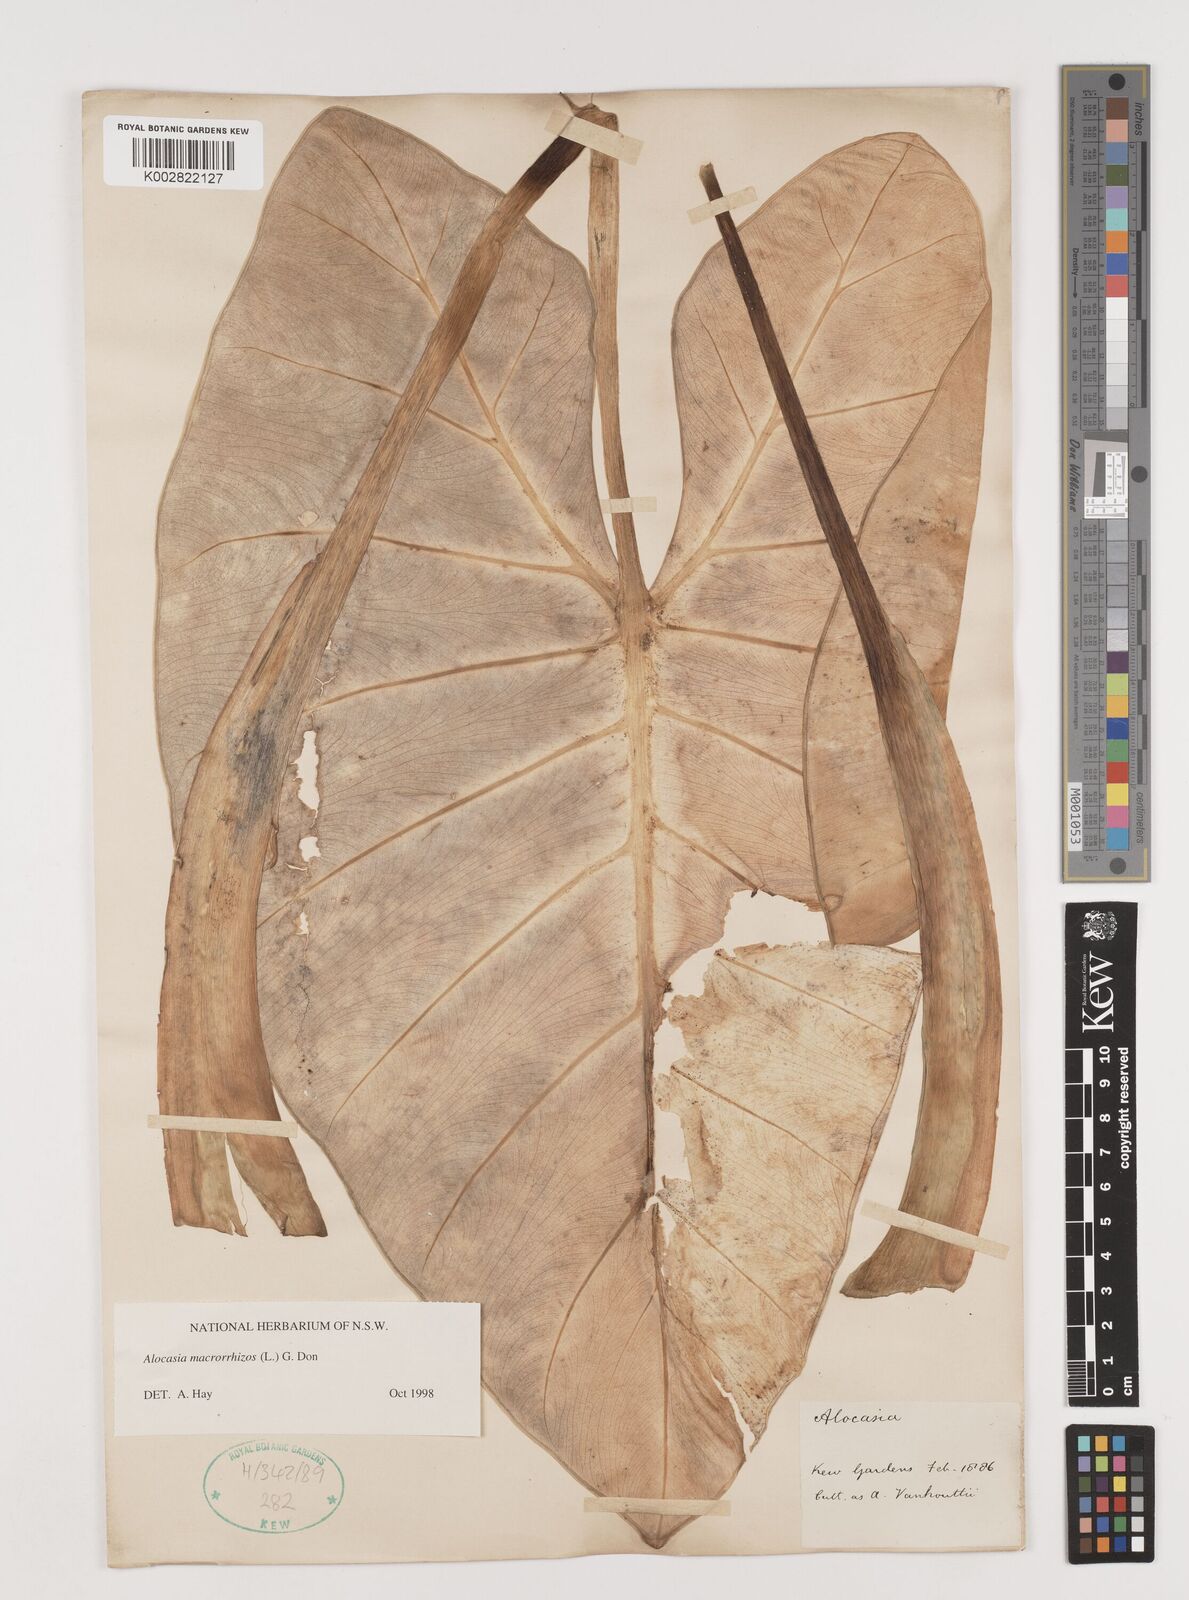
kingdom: Plantae
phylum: Tracheophyta
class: Liliopsida
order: Alismatales
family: Araceae
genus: Alocasia
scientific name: Alocasia macrorrhizos
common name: Giant taro
